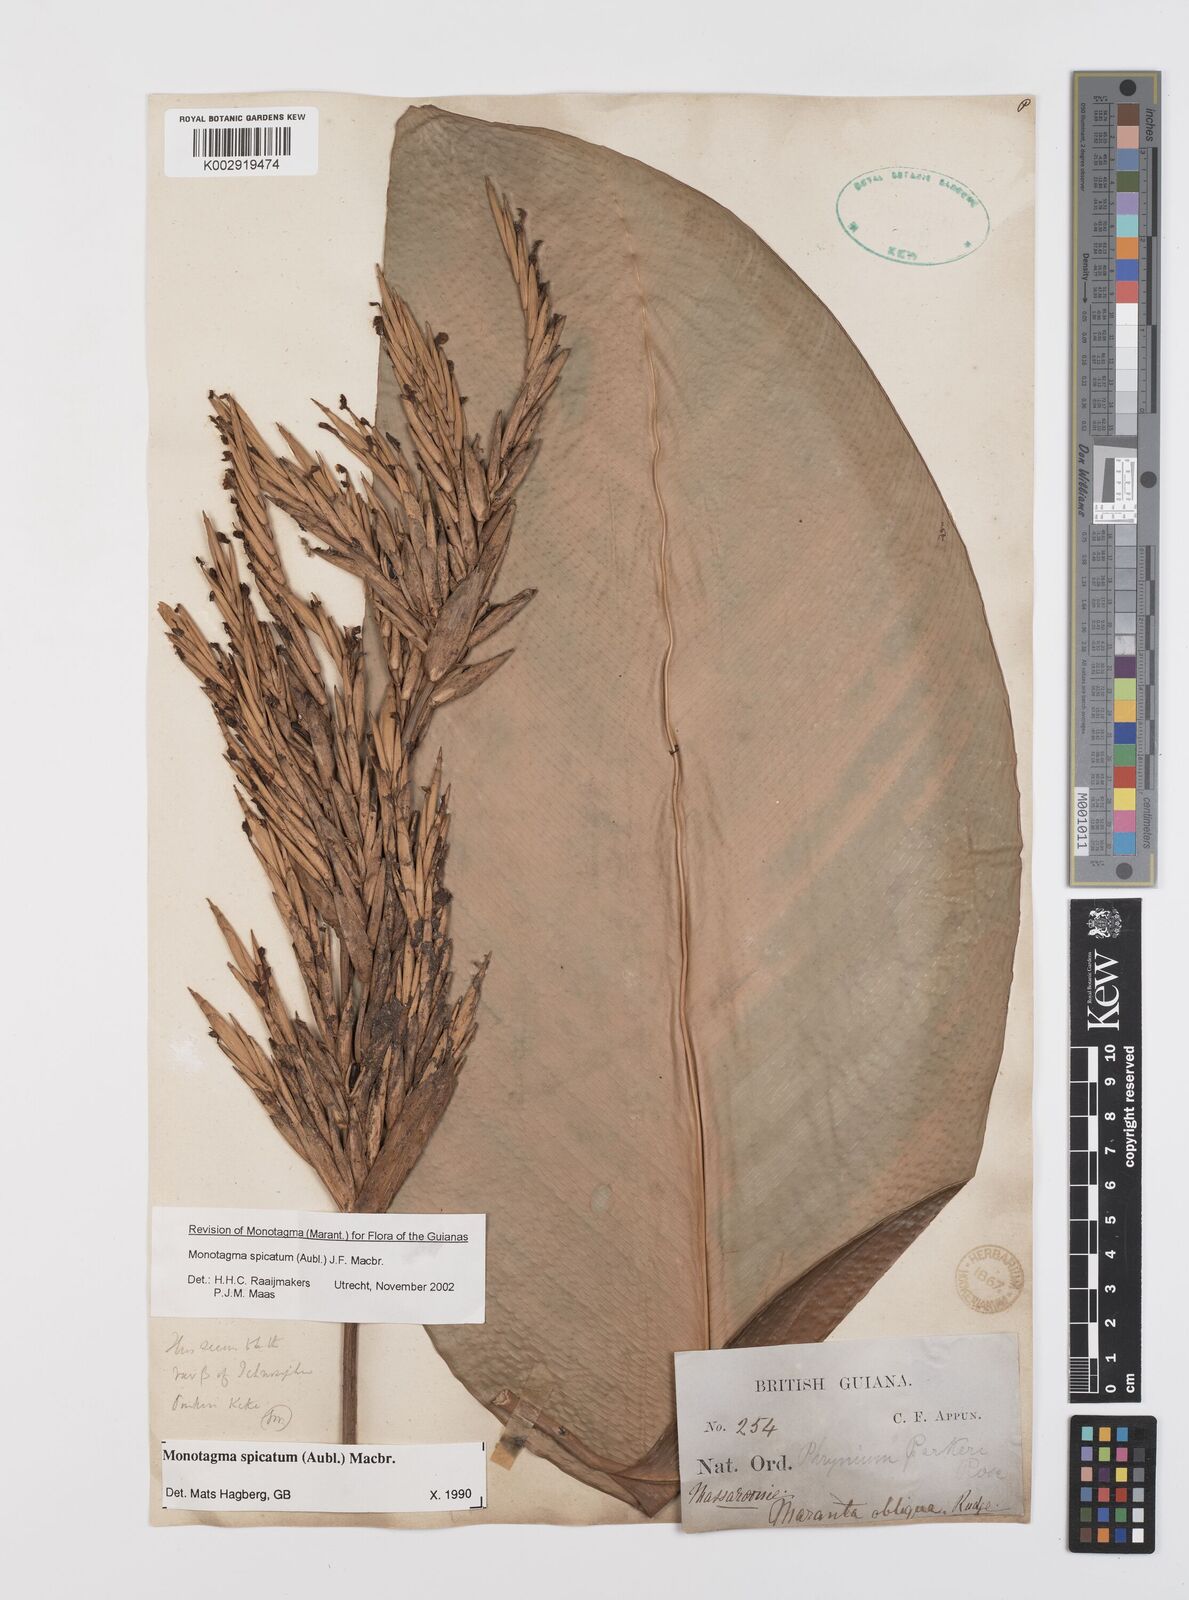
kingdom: Plantae
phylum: Tracheophyta
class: Liliopsida
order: Zingiberales
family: Marantaceae
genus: Monotagma
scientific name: Monotagma spicatum
